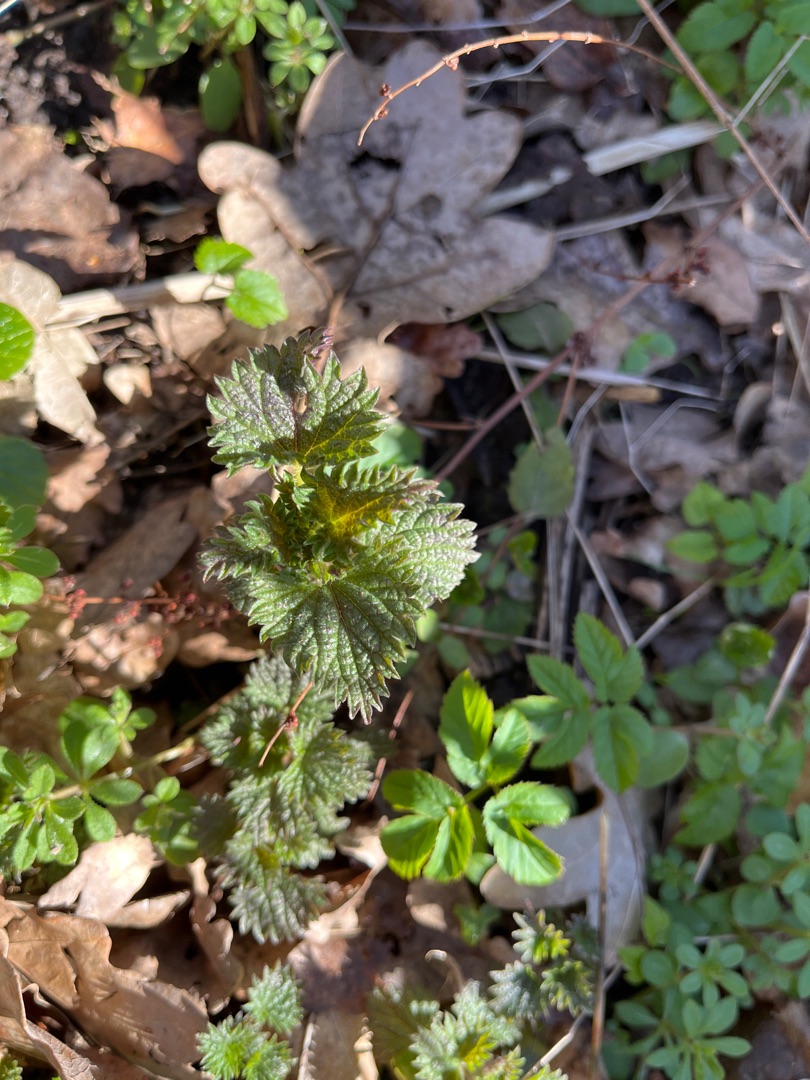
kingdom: Plantae
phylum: Tracheophyta
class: Magnoliopsida
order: Rosales
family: Urticaceae
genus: Urtica
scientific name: Urtica dioica
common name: Stor nælde
